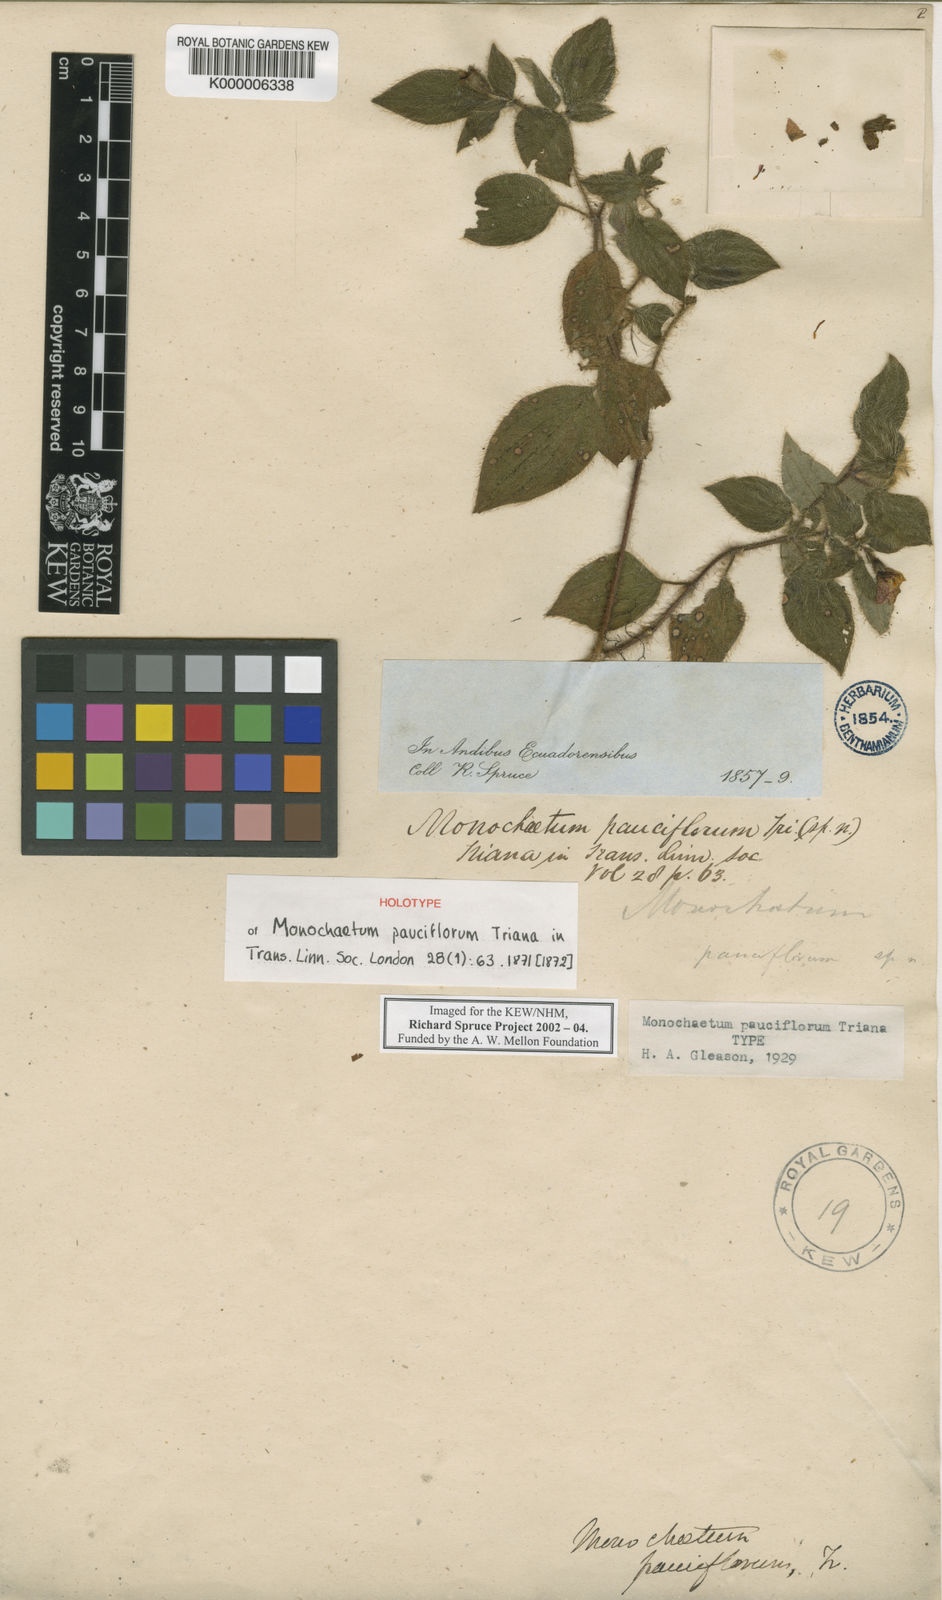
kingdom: Plantae
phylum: Tracheophyta
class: Magnoliopsida
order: Myrtales
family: Melastomataceae
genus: Monochaetum
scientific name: Monochaetum glanduliferum
